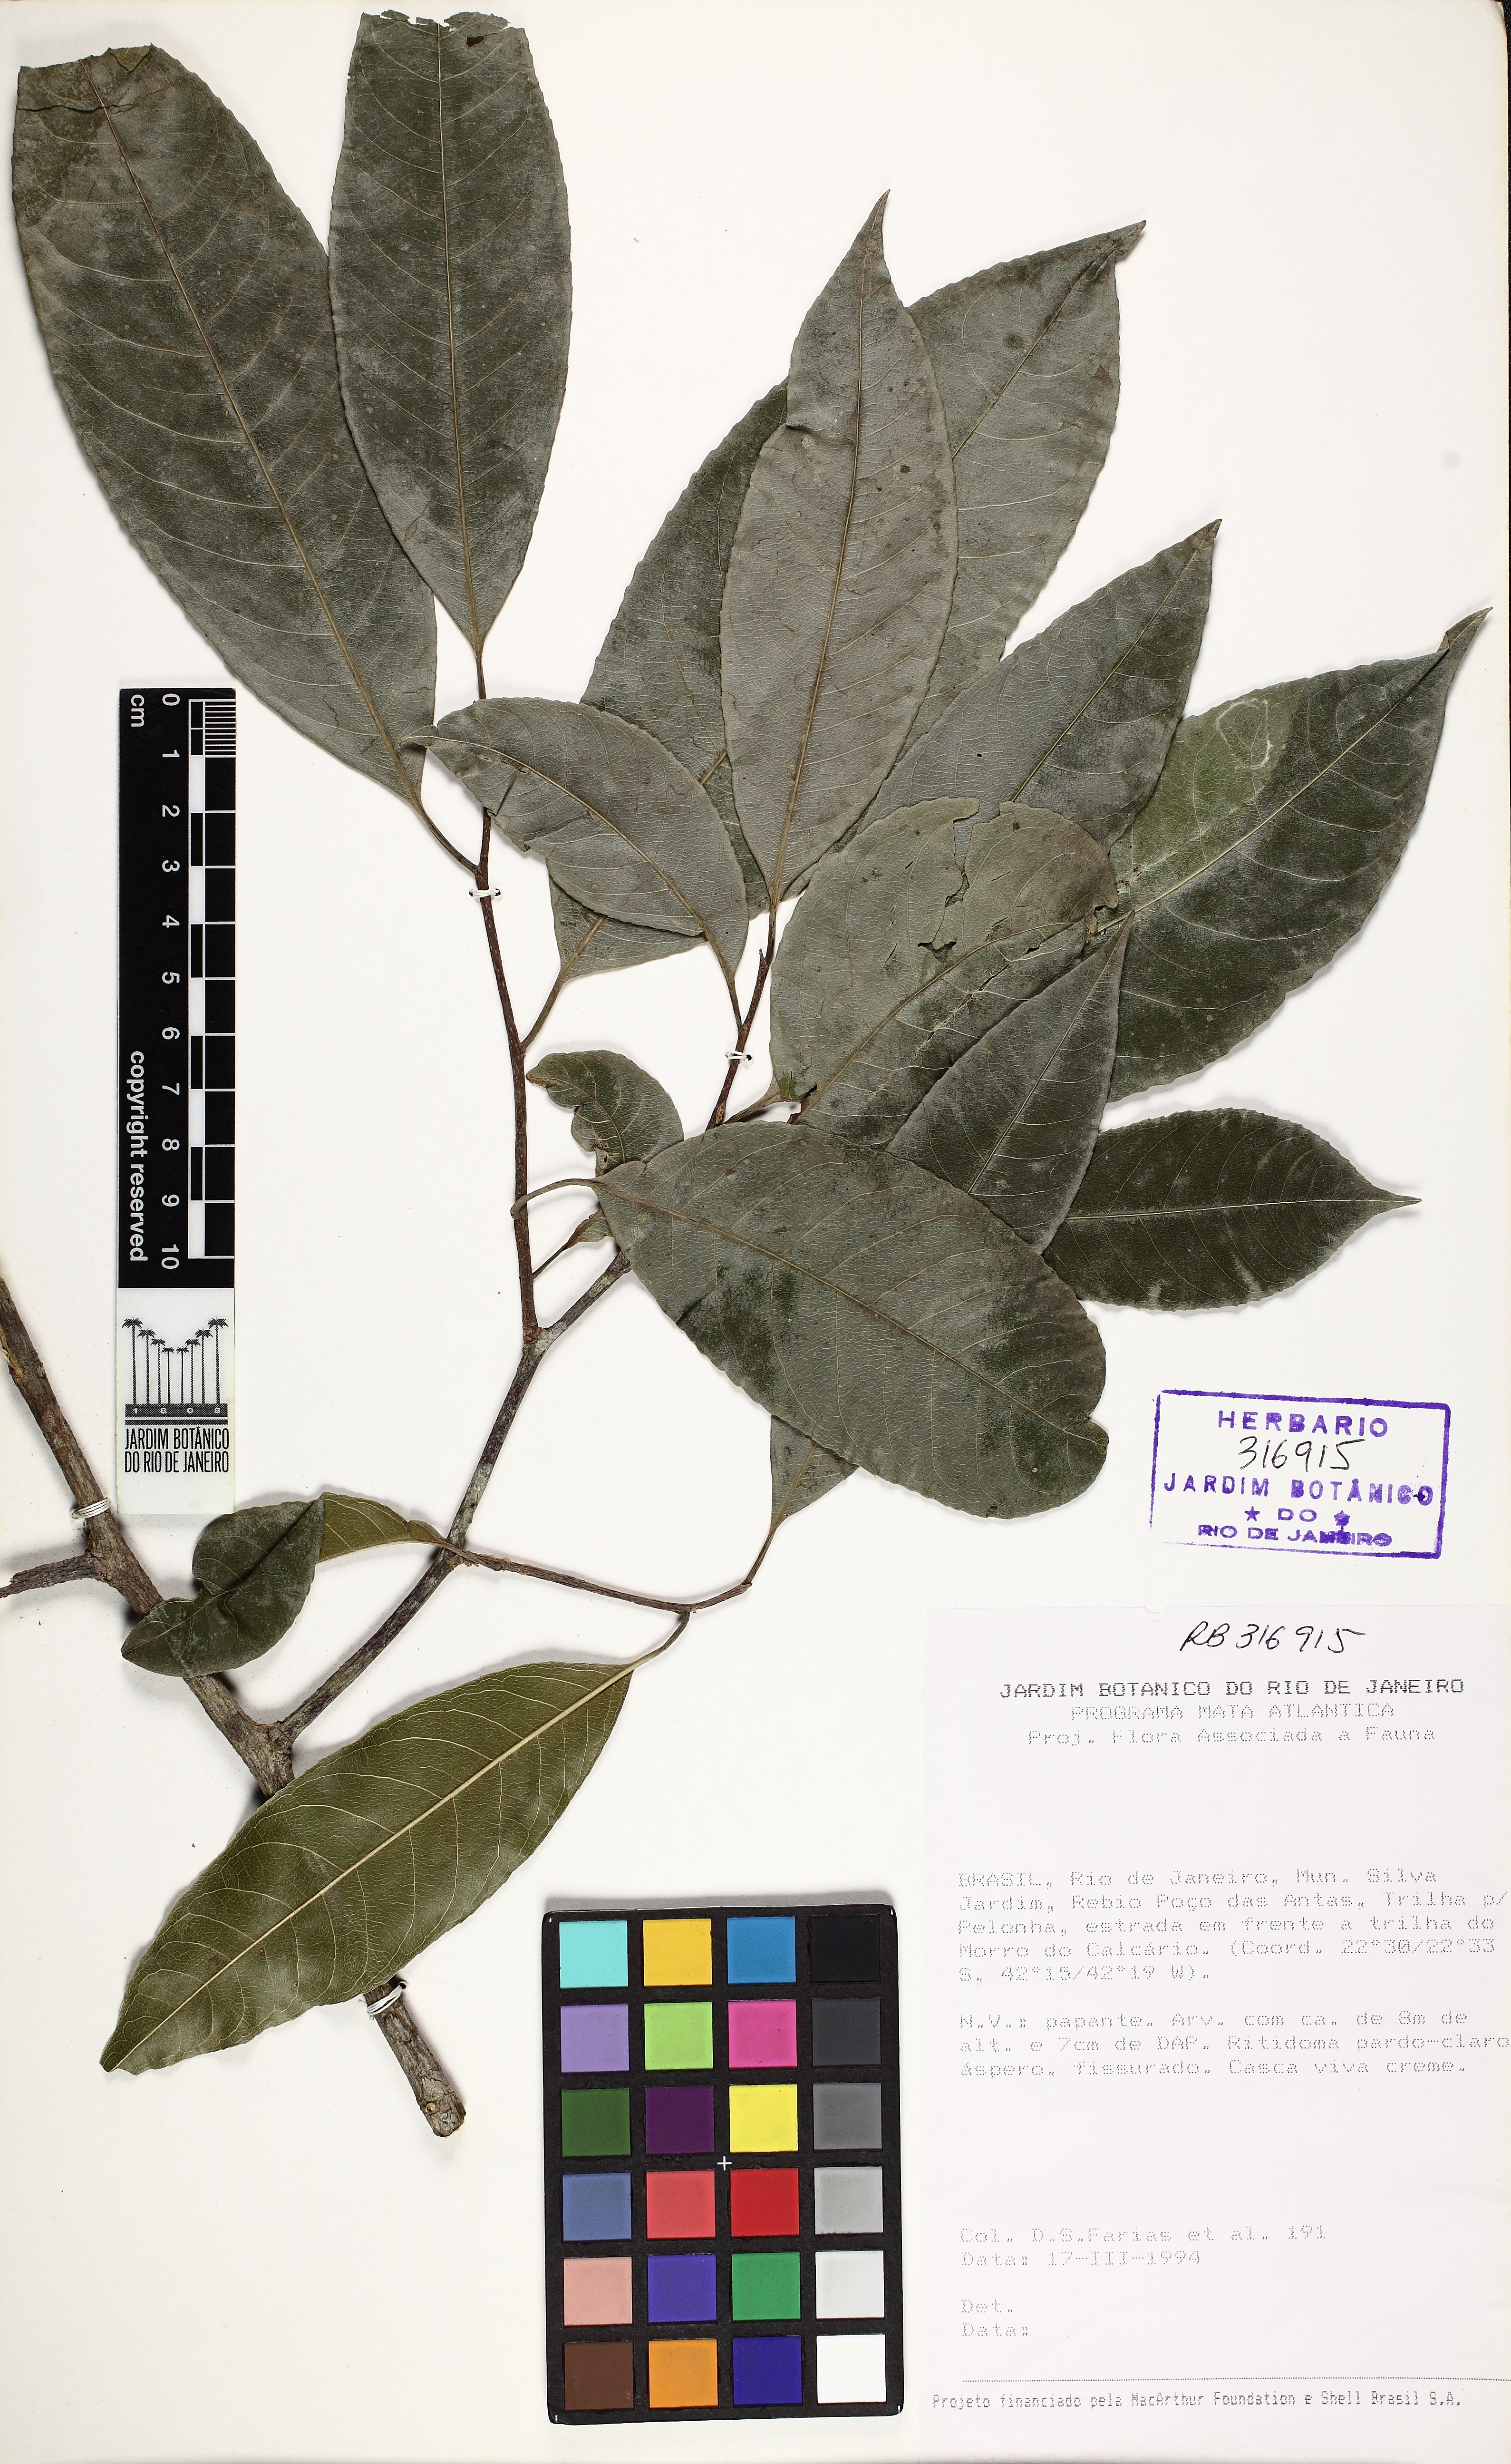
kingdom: Plantae
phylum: Tracheophyta
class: Magnoliopsida
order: Malpighiales
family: Violaceae
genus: Rinorea
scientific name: Rinorea guianensis
